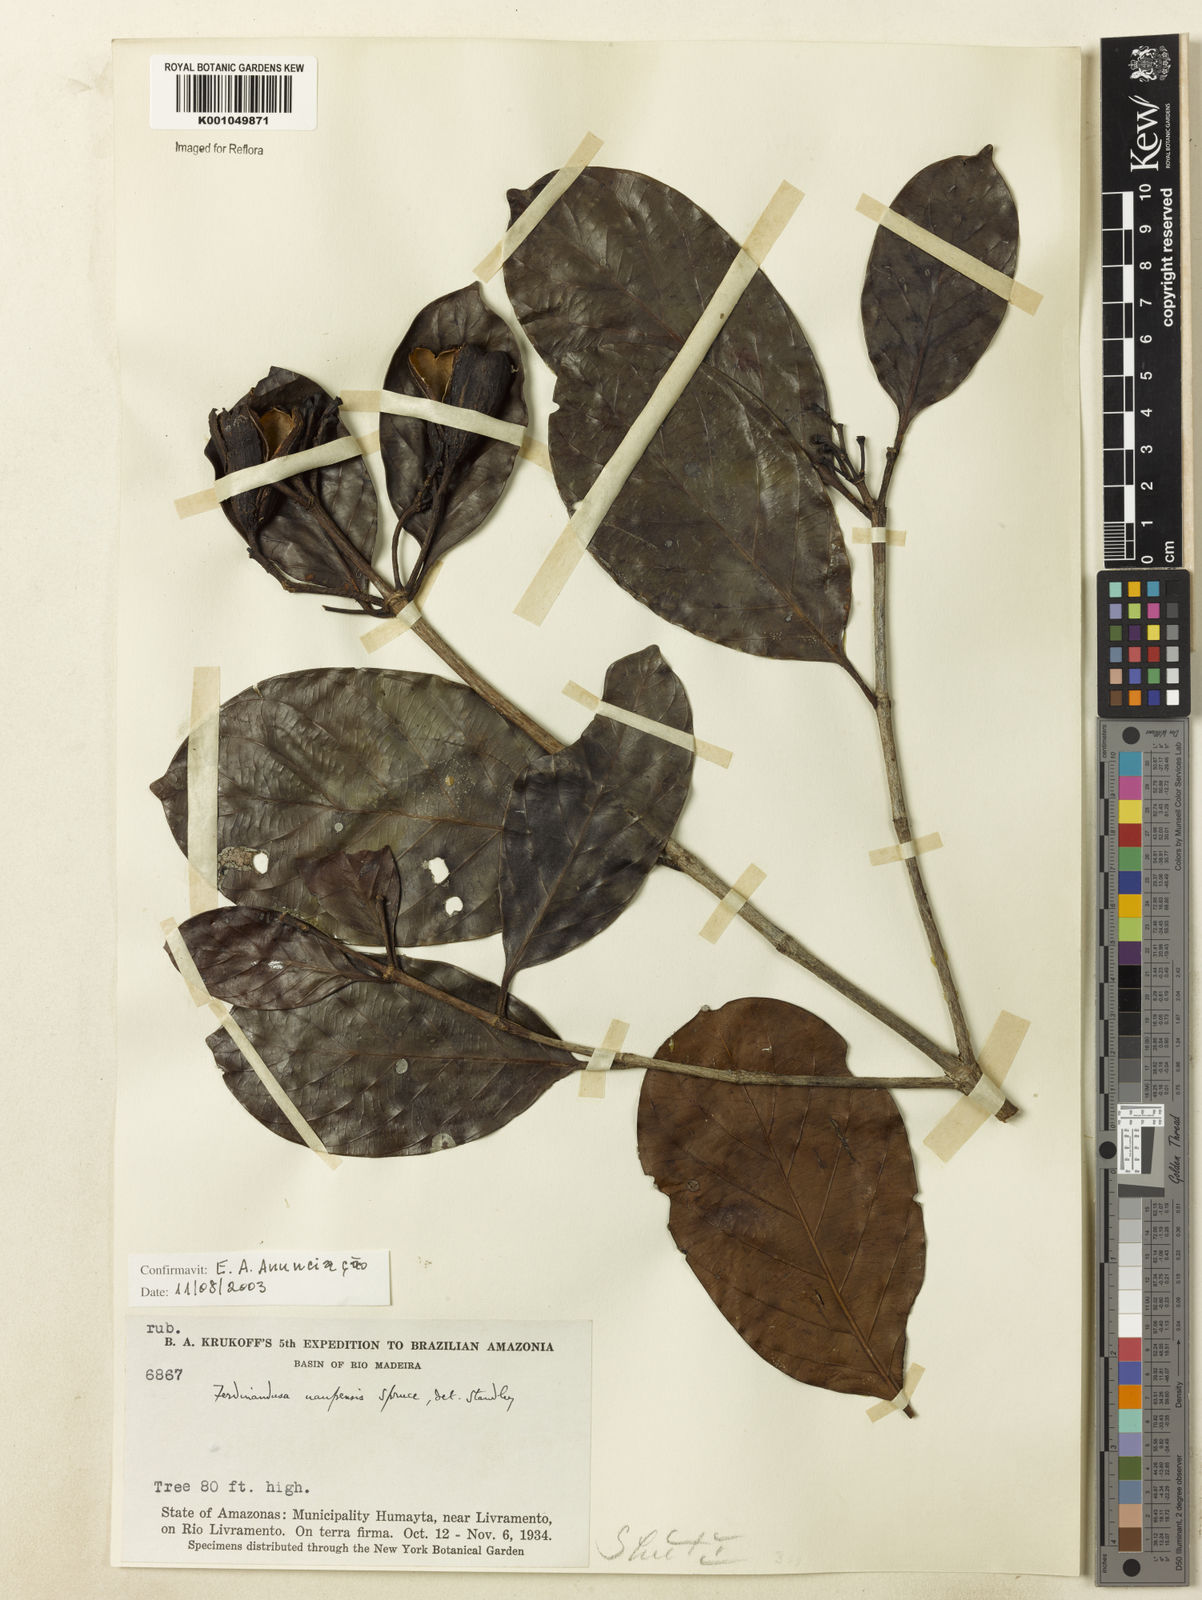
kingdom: Plantae
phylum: Tracheophyta
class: Magnoliopsida
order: Gentianales
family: Rubiaceae
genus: Ferdinandusa
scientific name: Ferdinandusa uaupensis
